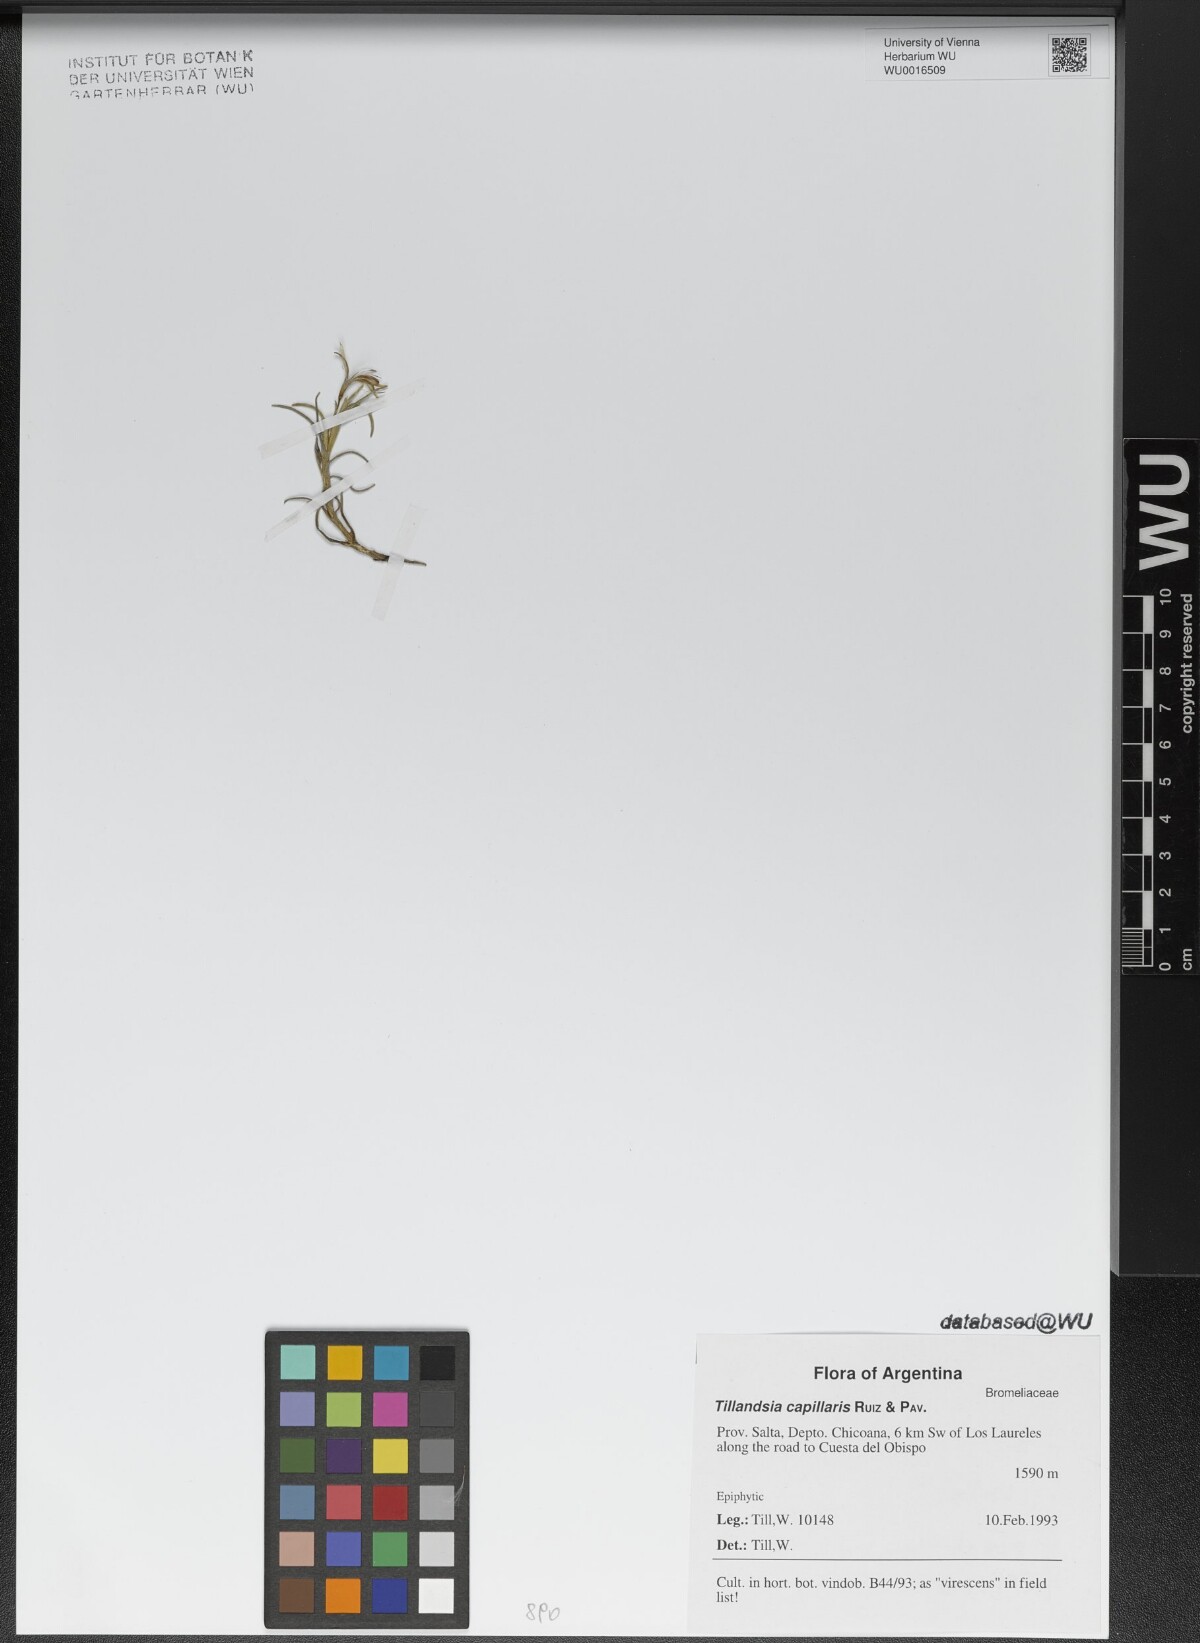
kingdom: Plantae
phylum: Tracheophyta
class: Liliopsida
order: Poales
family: Bromeliaceae
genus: Tillandsia
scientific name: Tillandsia capillaris
